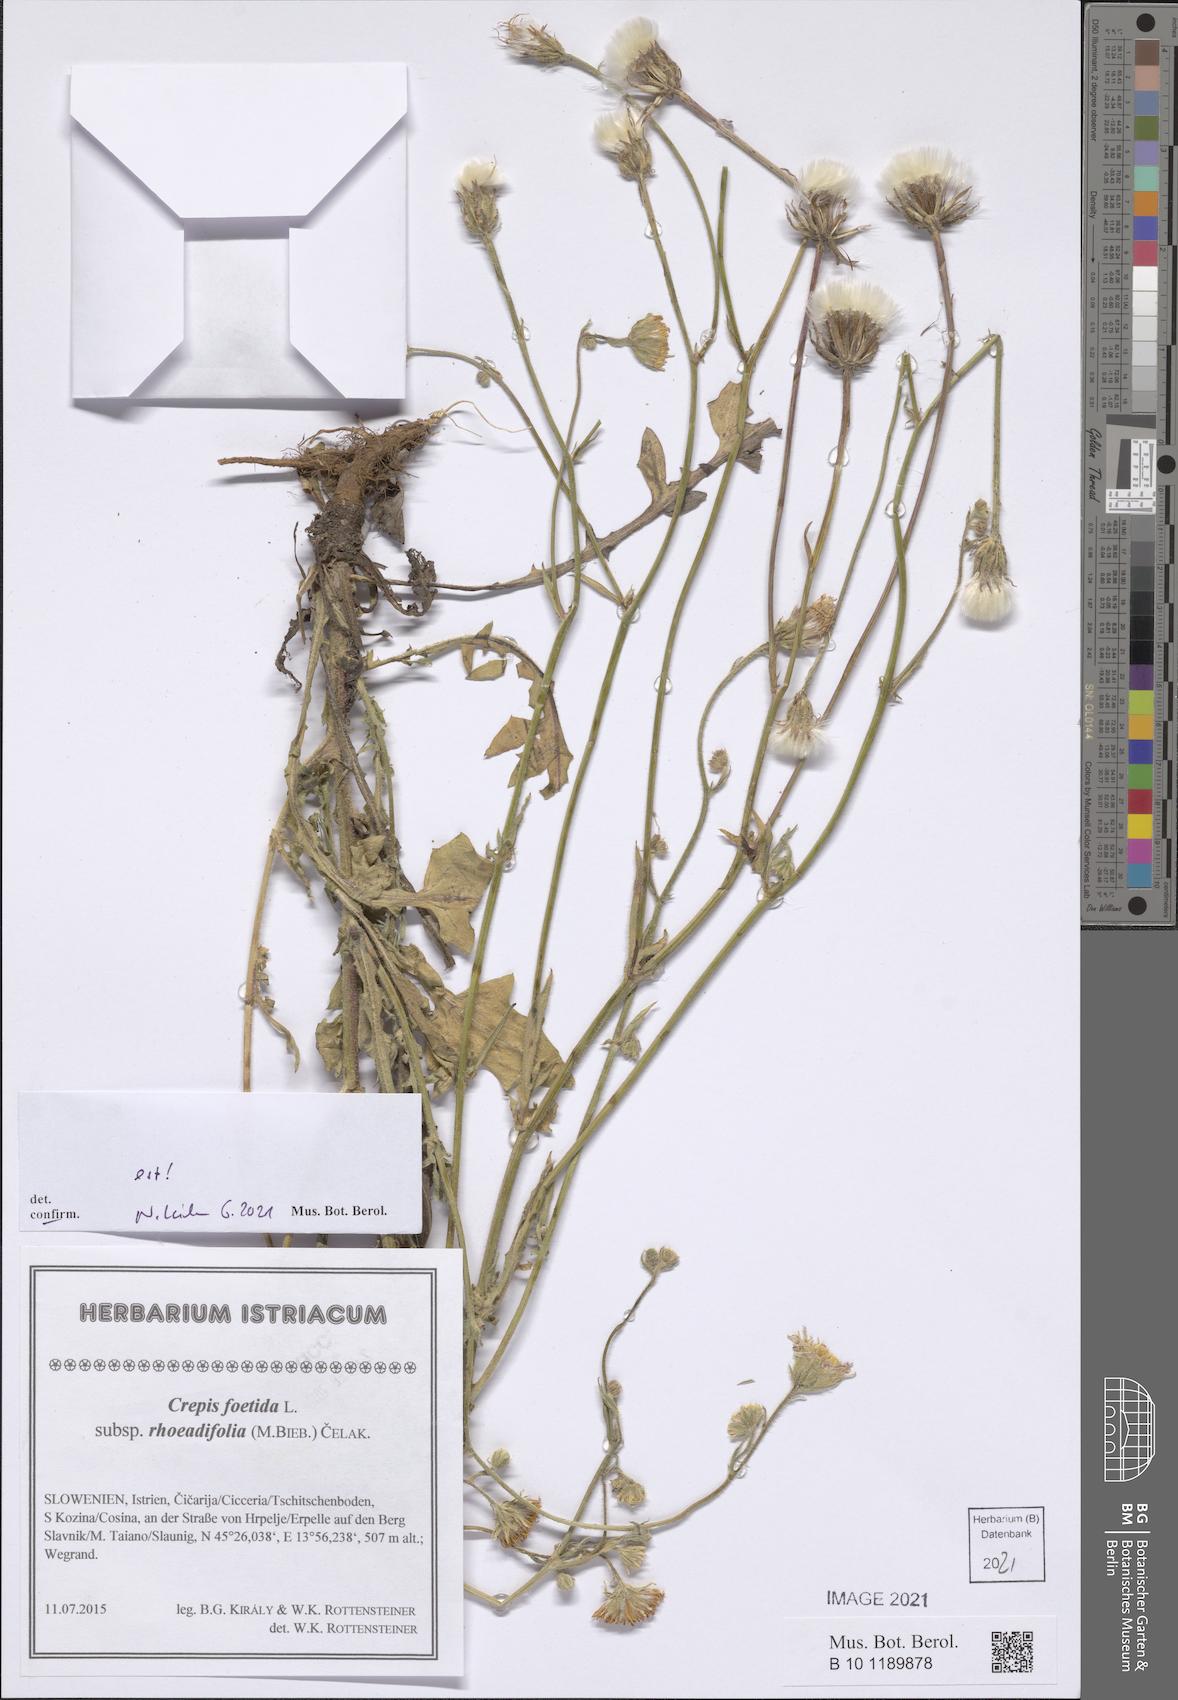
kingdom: Plantae
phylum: Tracheophyta
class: Magnoliopsida
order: Asterales
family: Asteraceae
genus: Crepis
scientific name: Crepis foetida
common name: Stinking hawk's-beard
